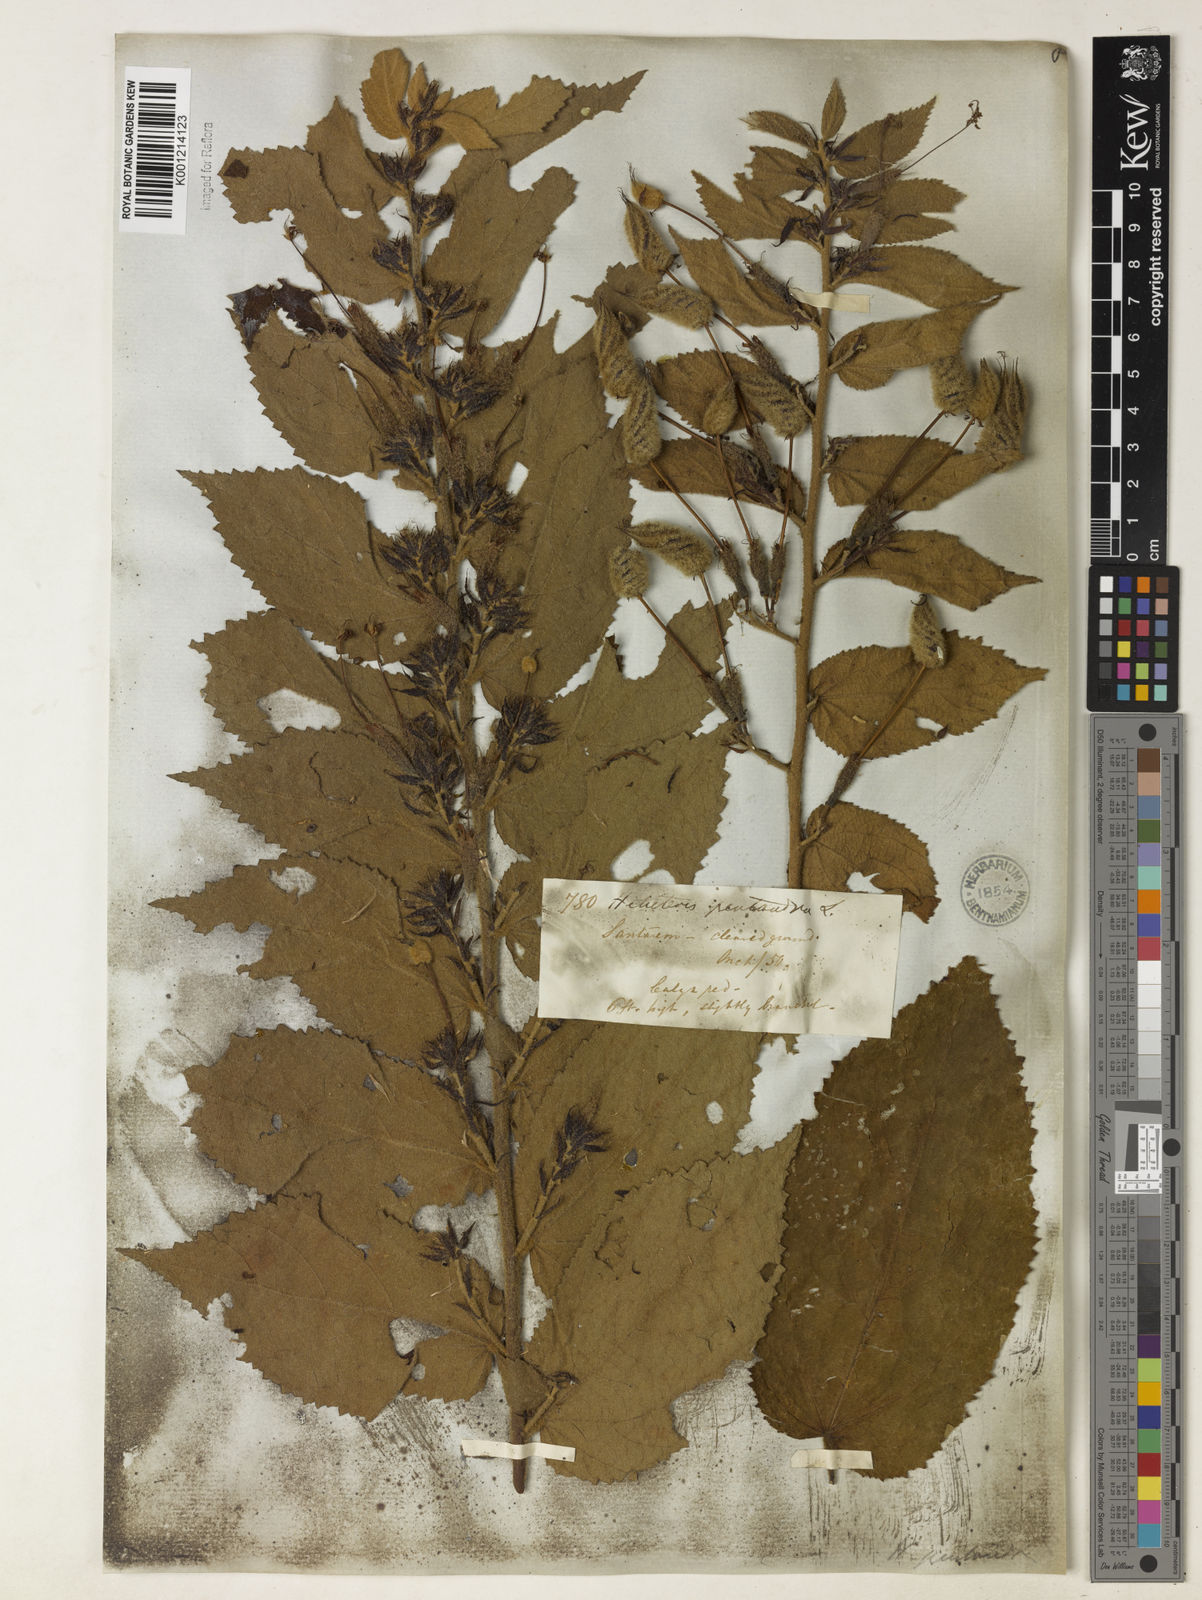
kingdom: Plantae
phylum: Tracheophyta
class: Magnoliopsida
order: Malvales
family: Malvaceae
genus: Helicteres
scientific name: Helicteres pentandra
